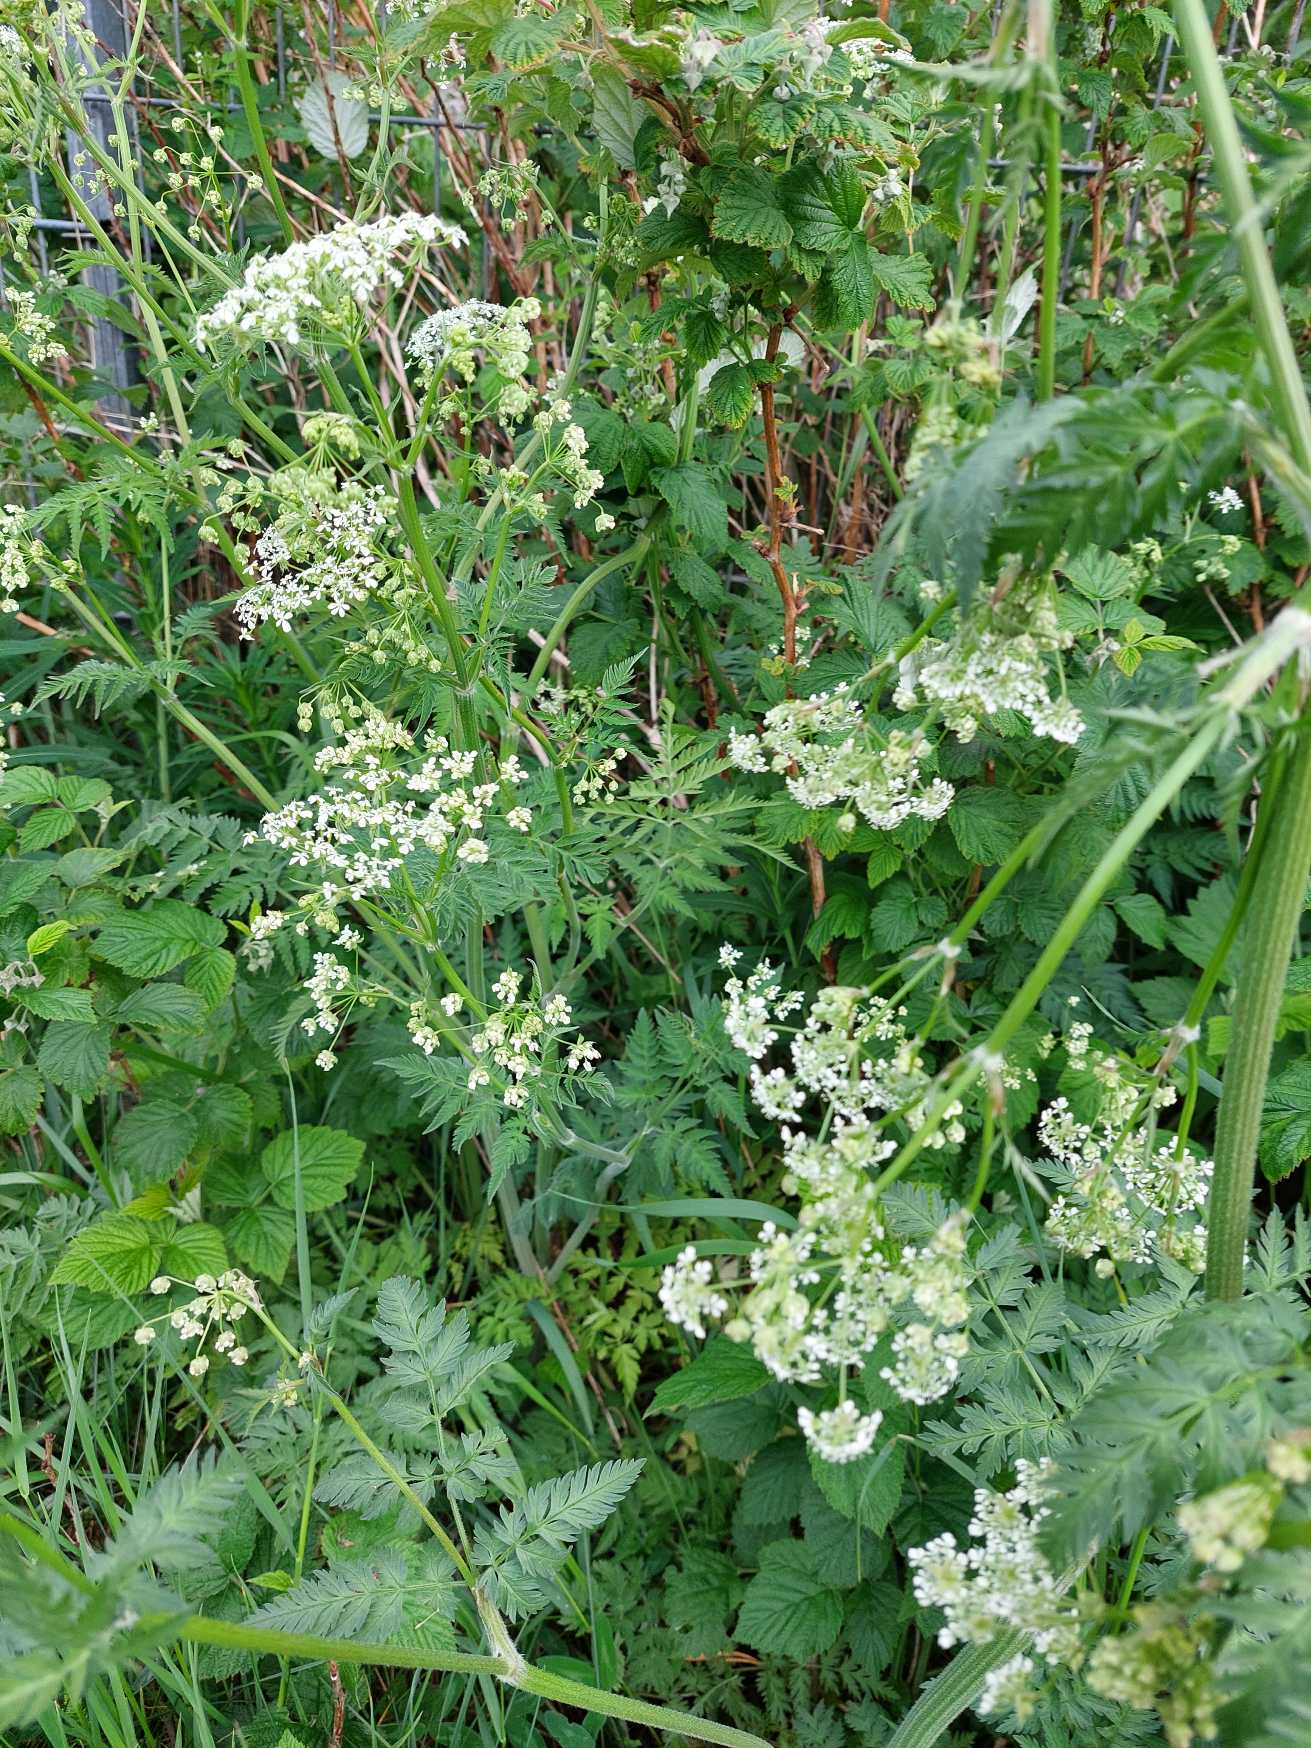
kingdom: Plantae
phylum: Tracheophyta
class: Magnoliopsida
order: Apiales
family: Apiaceae
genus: Anthriscus
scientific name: Anthriscus sylvestris
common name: Vild kørvel
